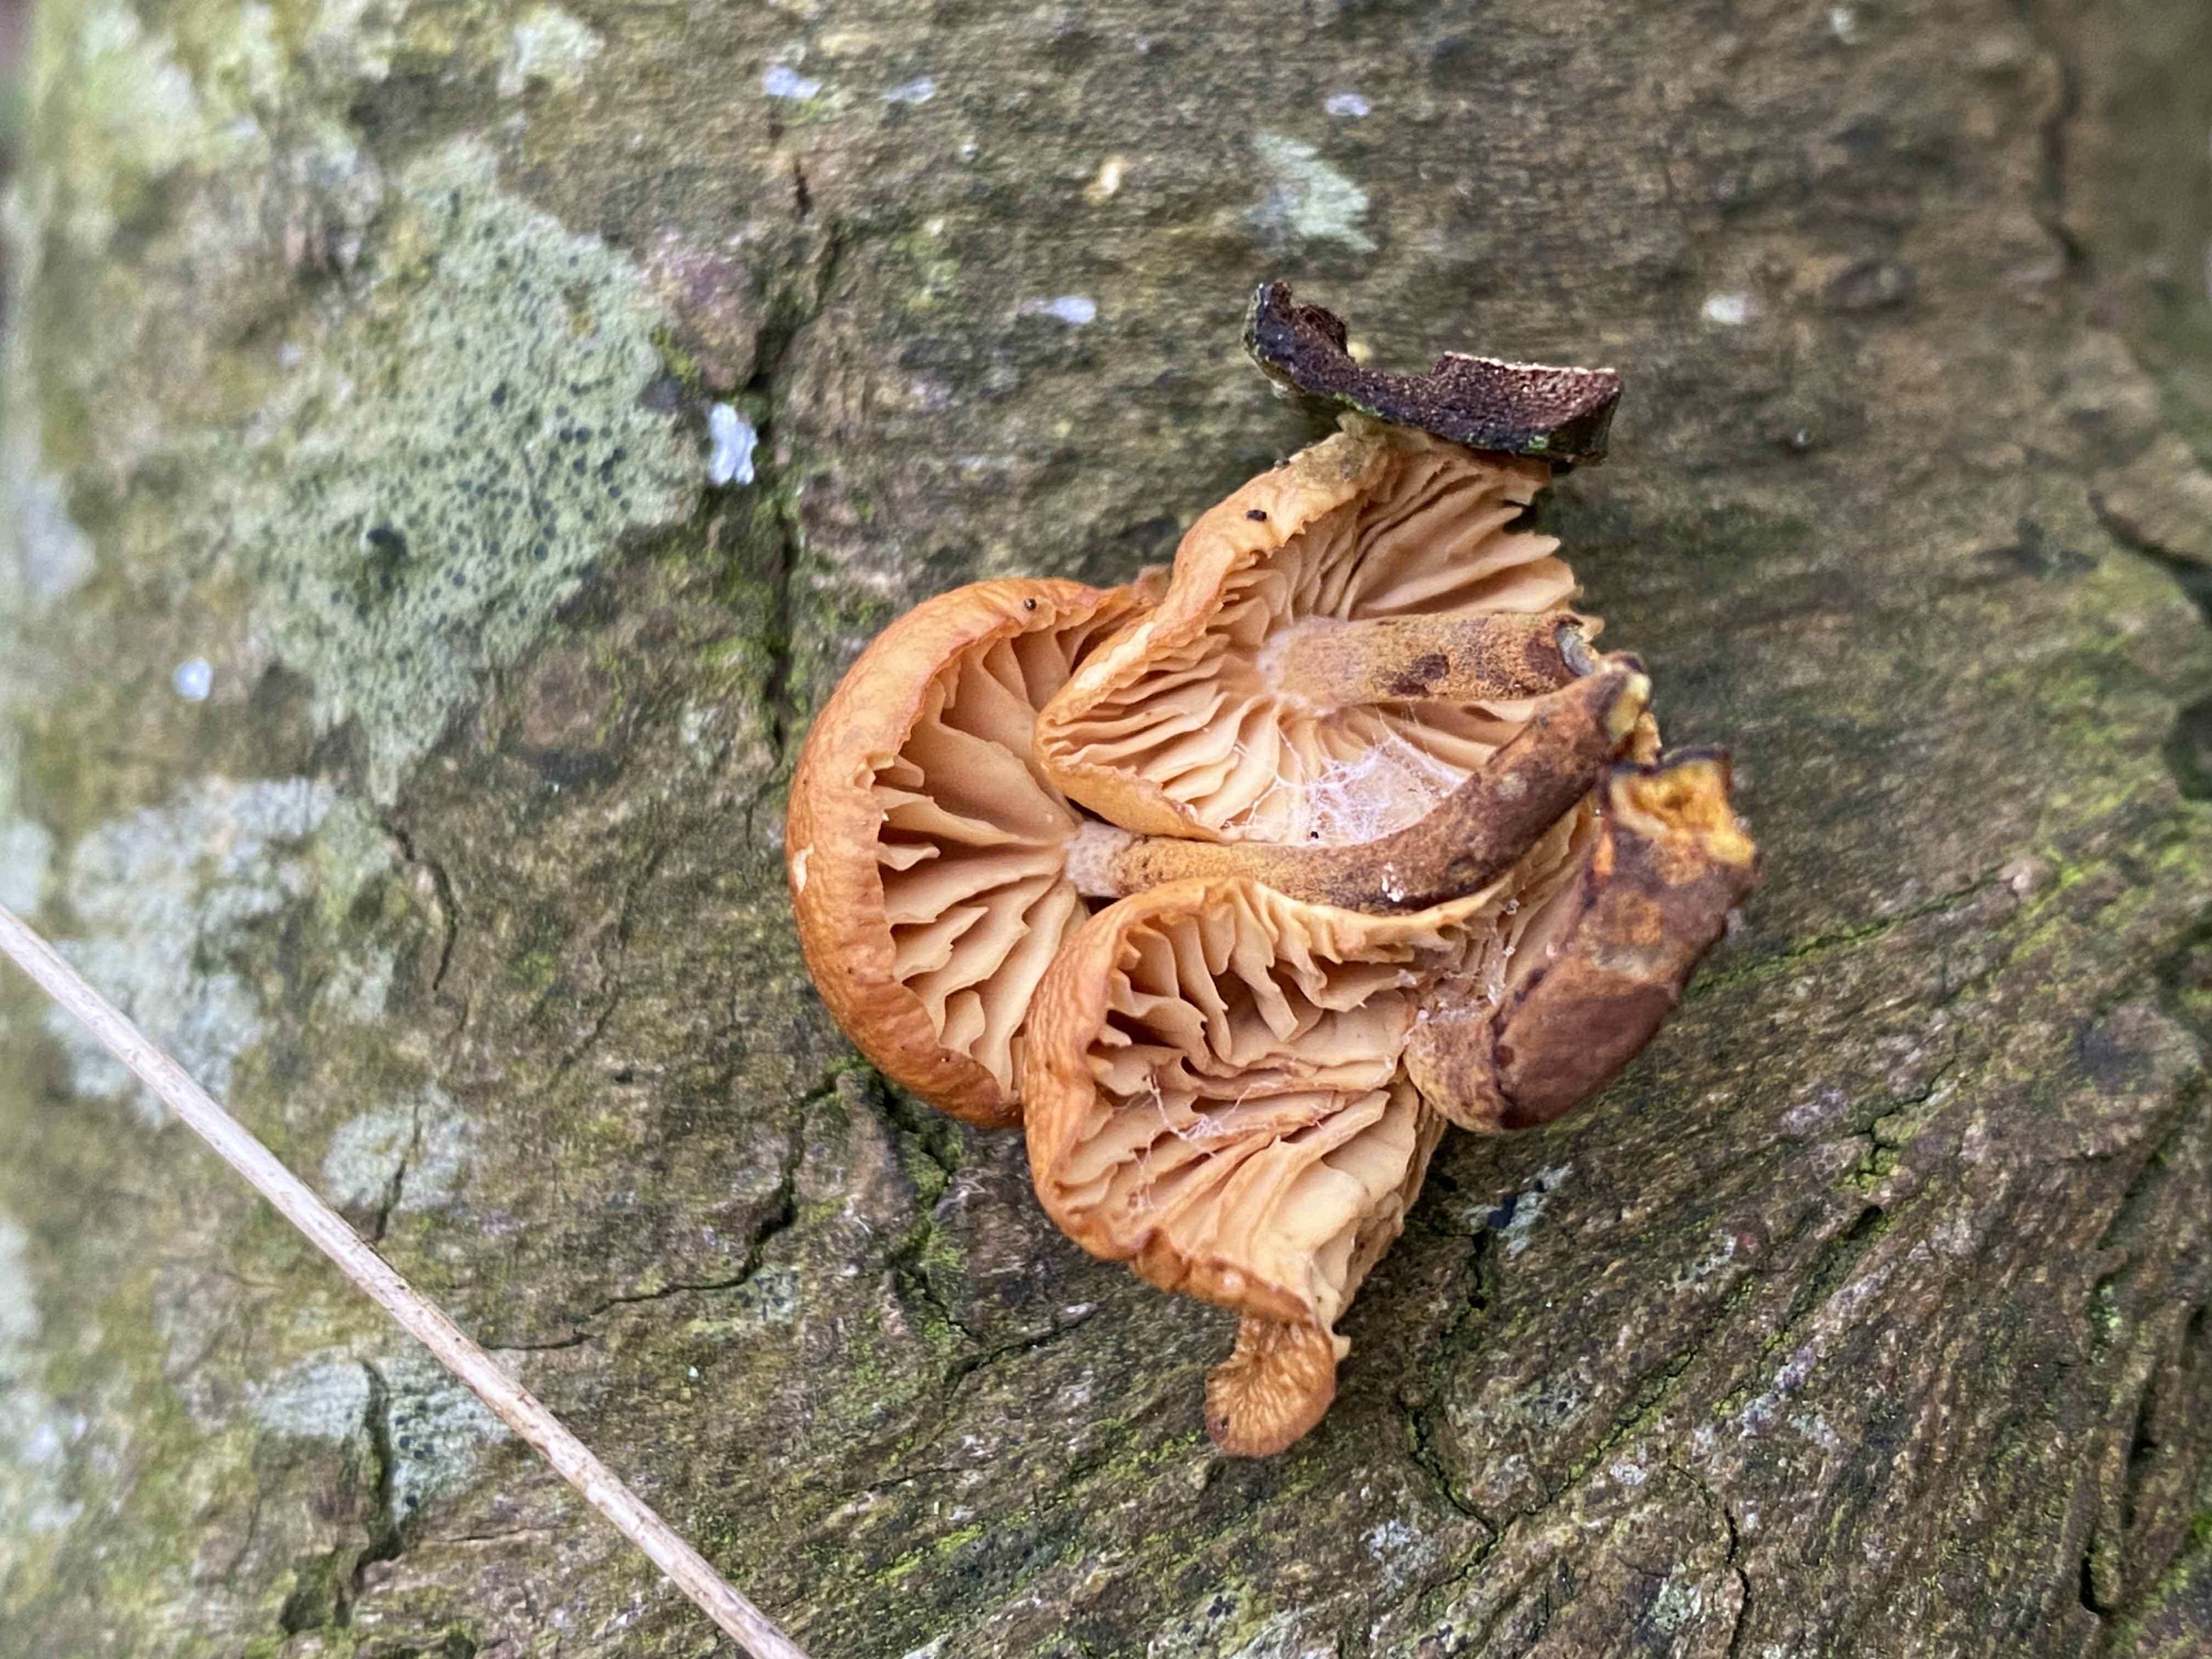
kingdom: Fungi
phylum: Basidiomycota
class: Agaricomycetes
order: Agaricales
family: Physalacriaceae
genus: Flammulina
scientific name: Flammulina
